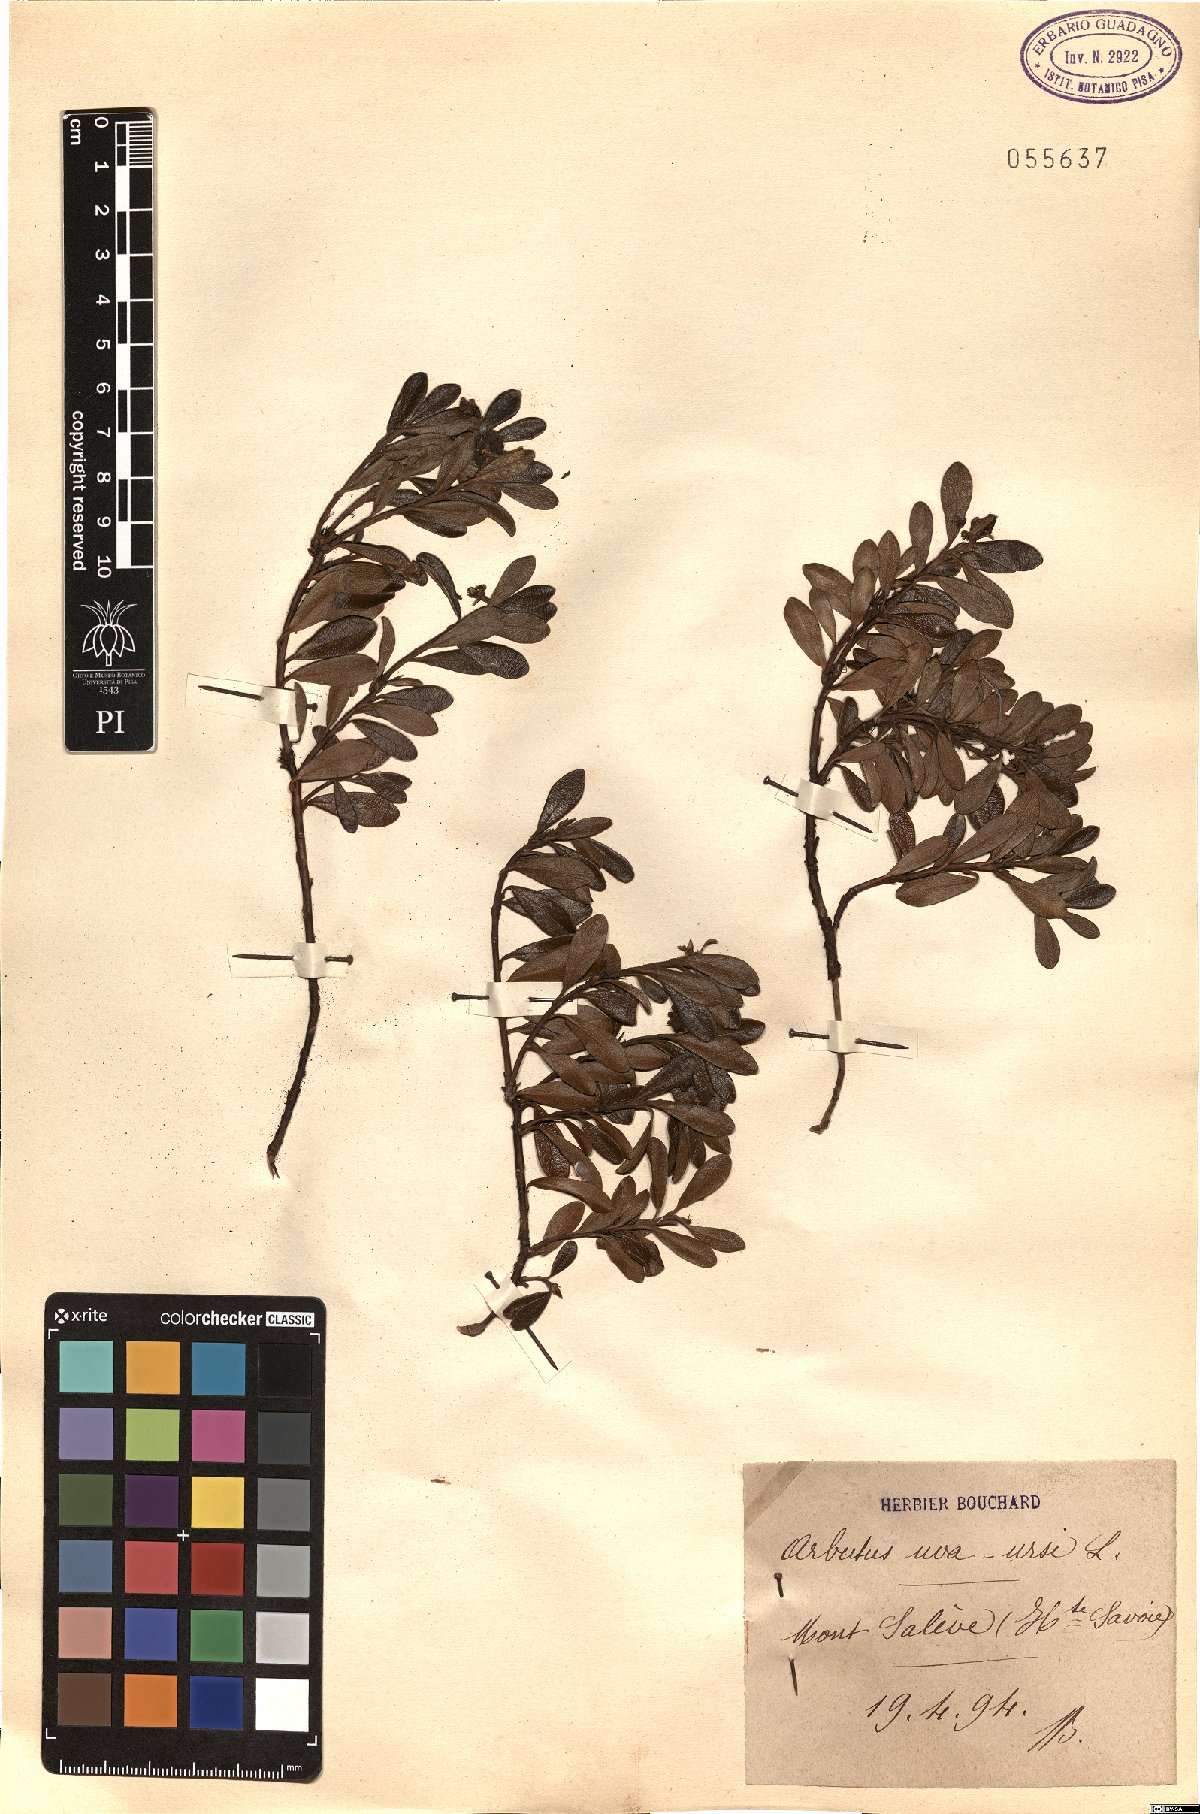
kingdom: Plantae
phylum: Tracheophyta
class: Magnoliopsida
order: Ericales
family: Ericaceae
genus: Arctostaphylos
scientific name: Arctostaphylos uva-ursi
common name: Bearberry
